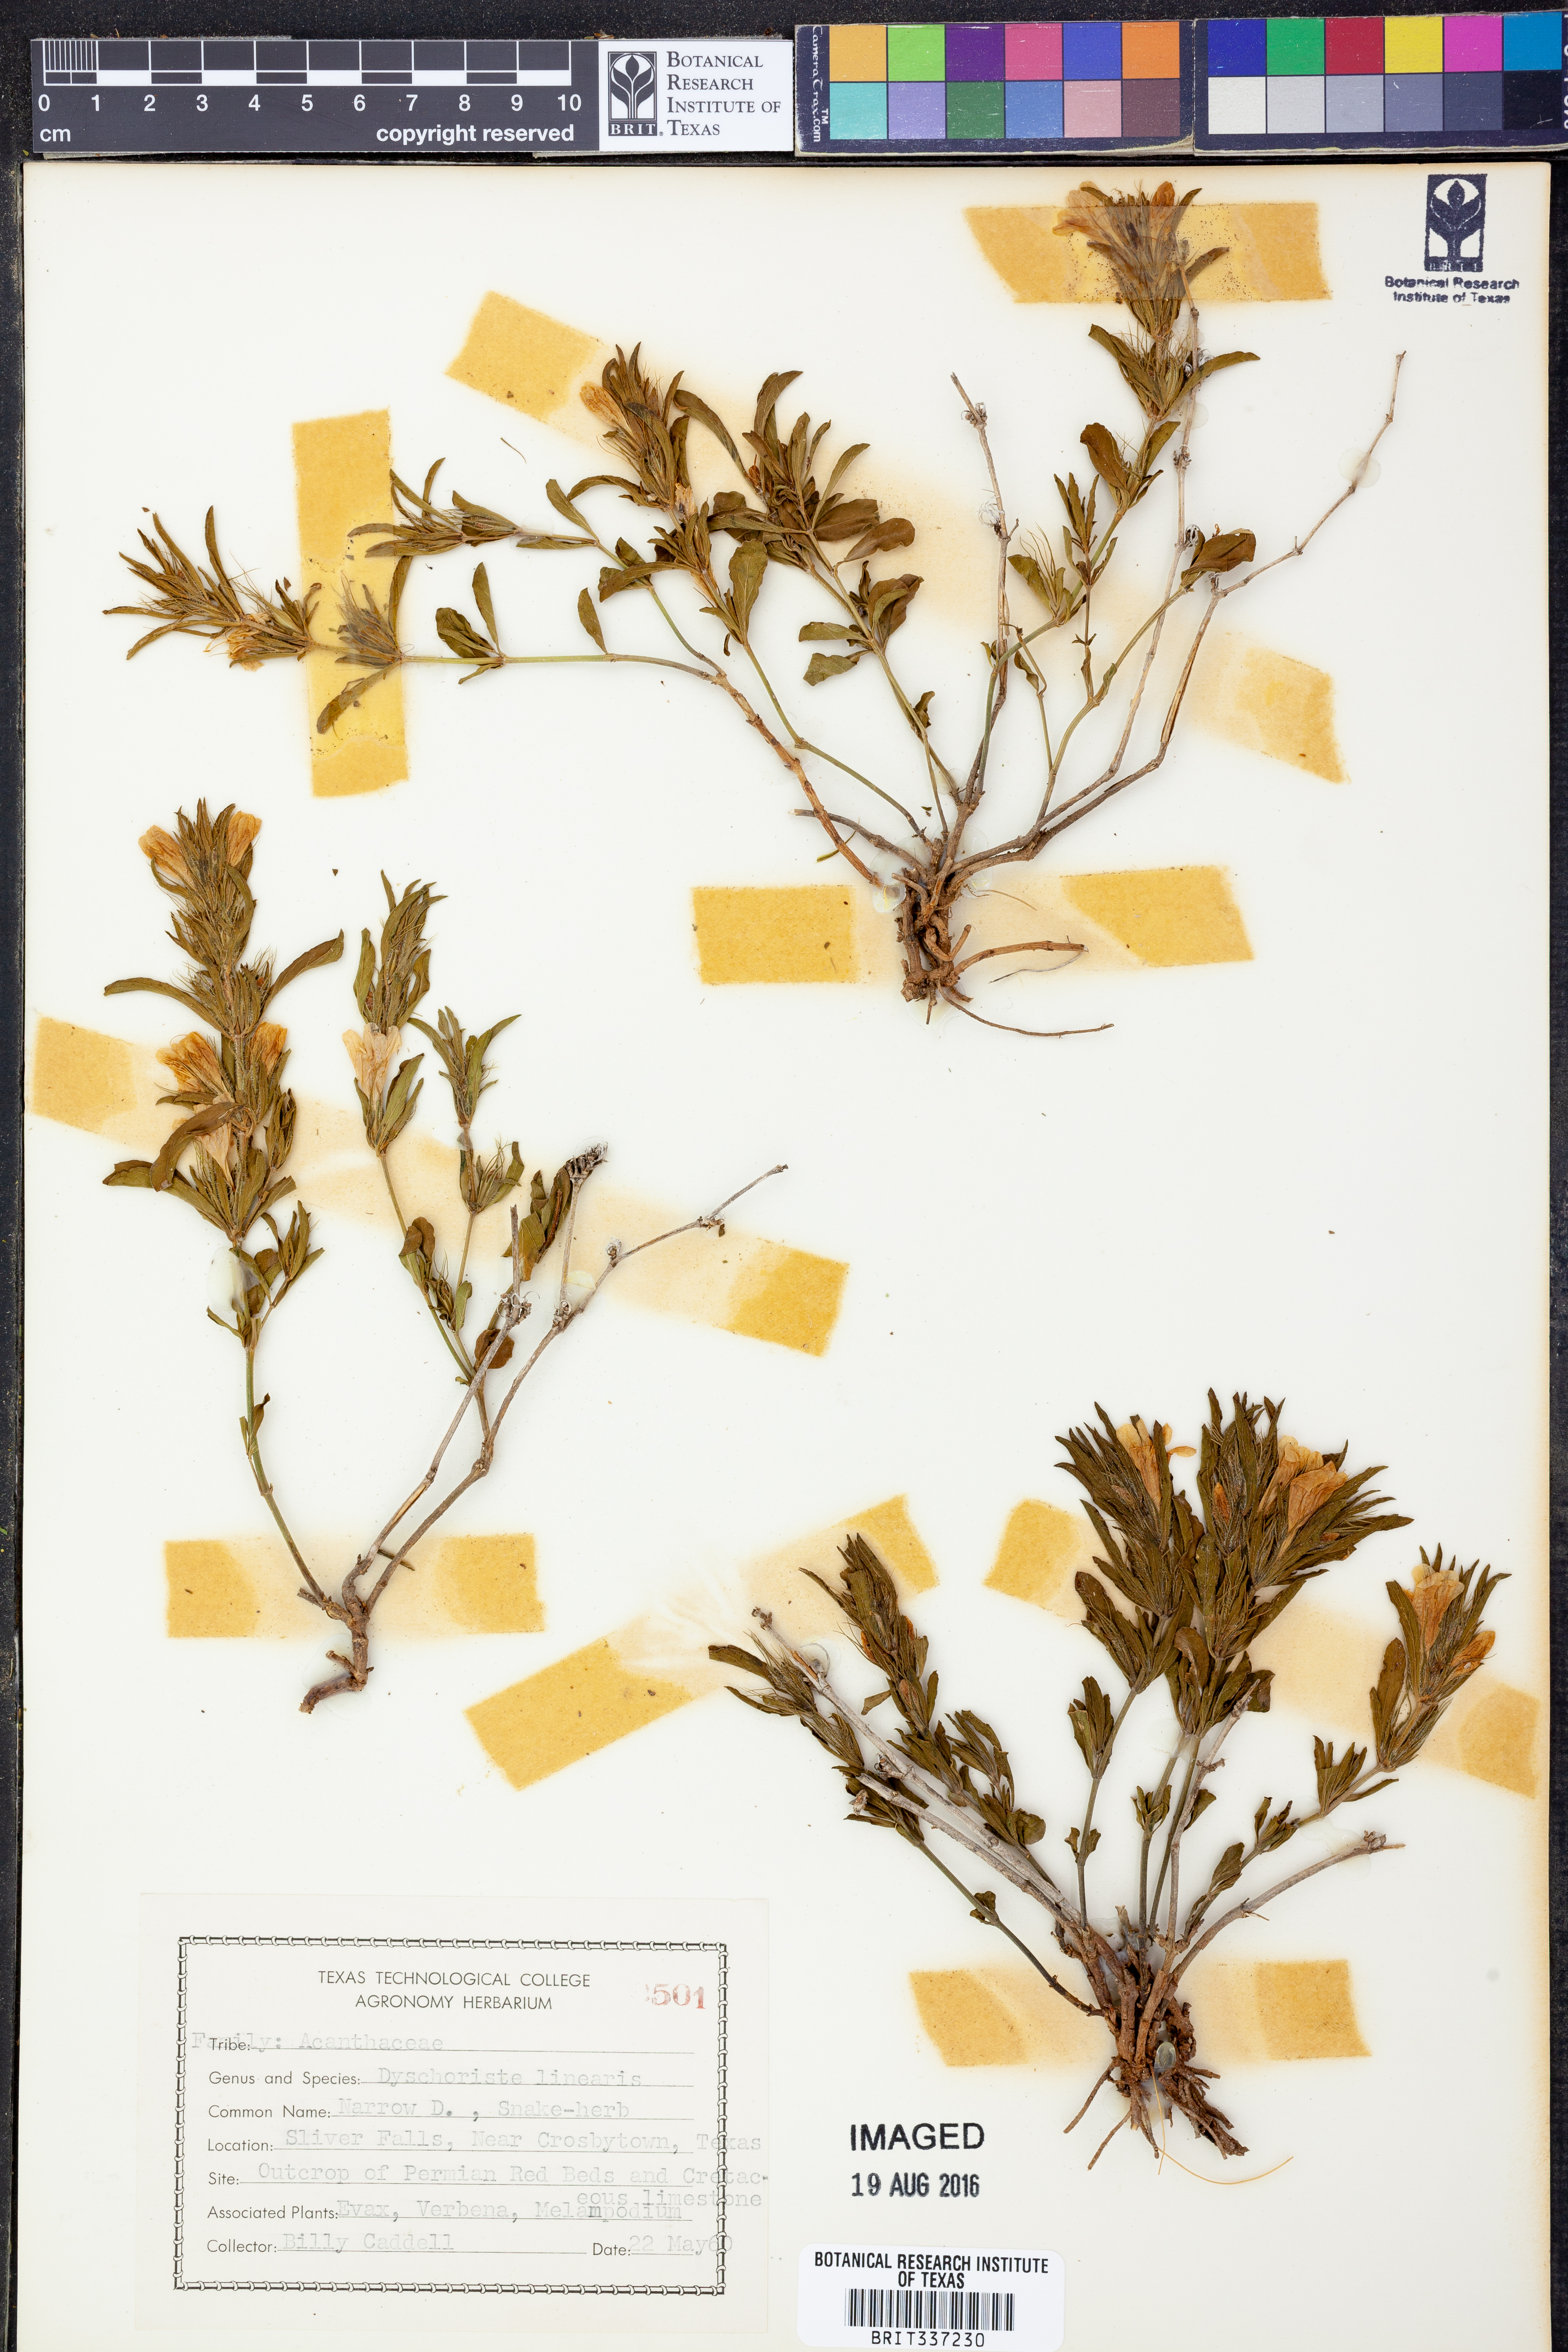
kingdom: Plantae
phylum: Tracheophyta
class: Magnoliopsida
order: Lamiales
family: Acanthaceae
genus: Dyschoriste
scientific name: Dyschoriste linearis
